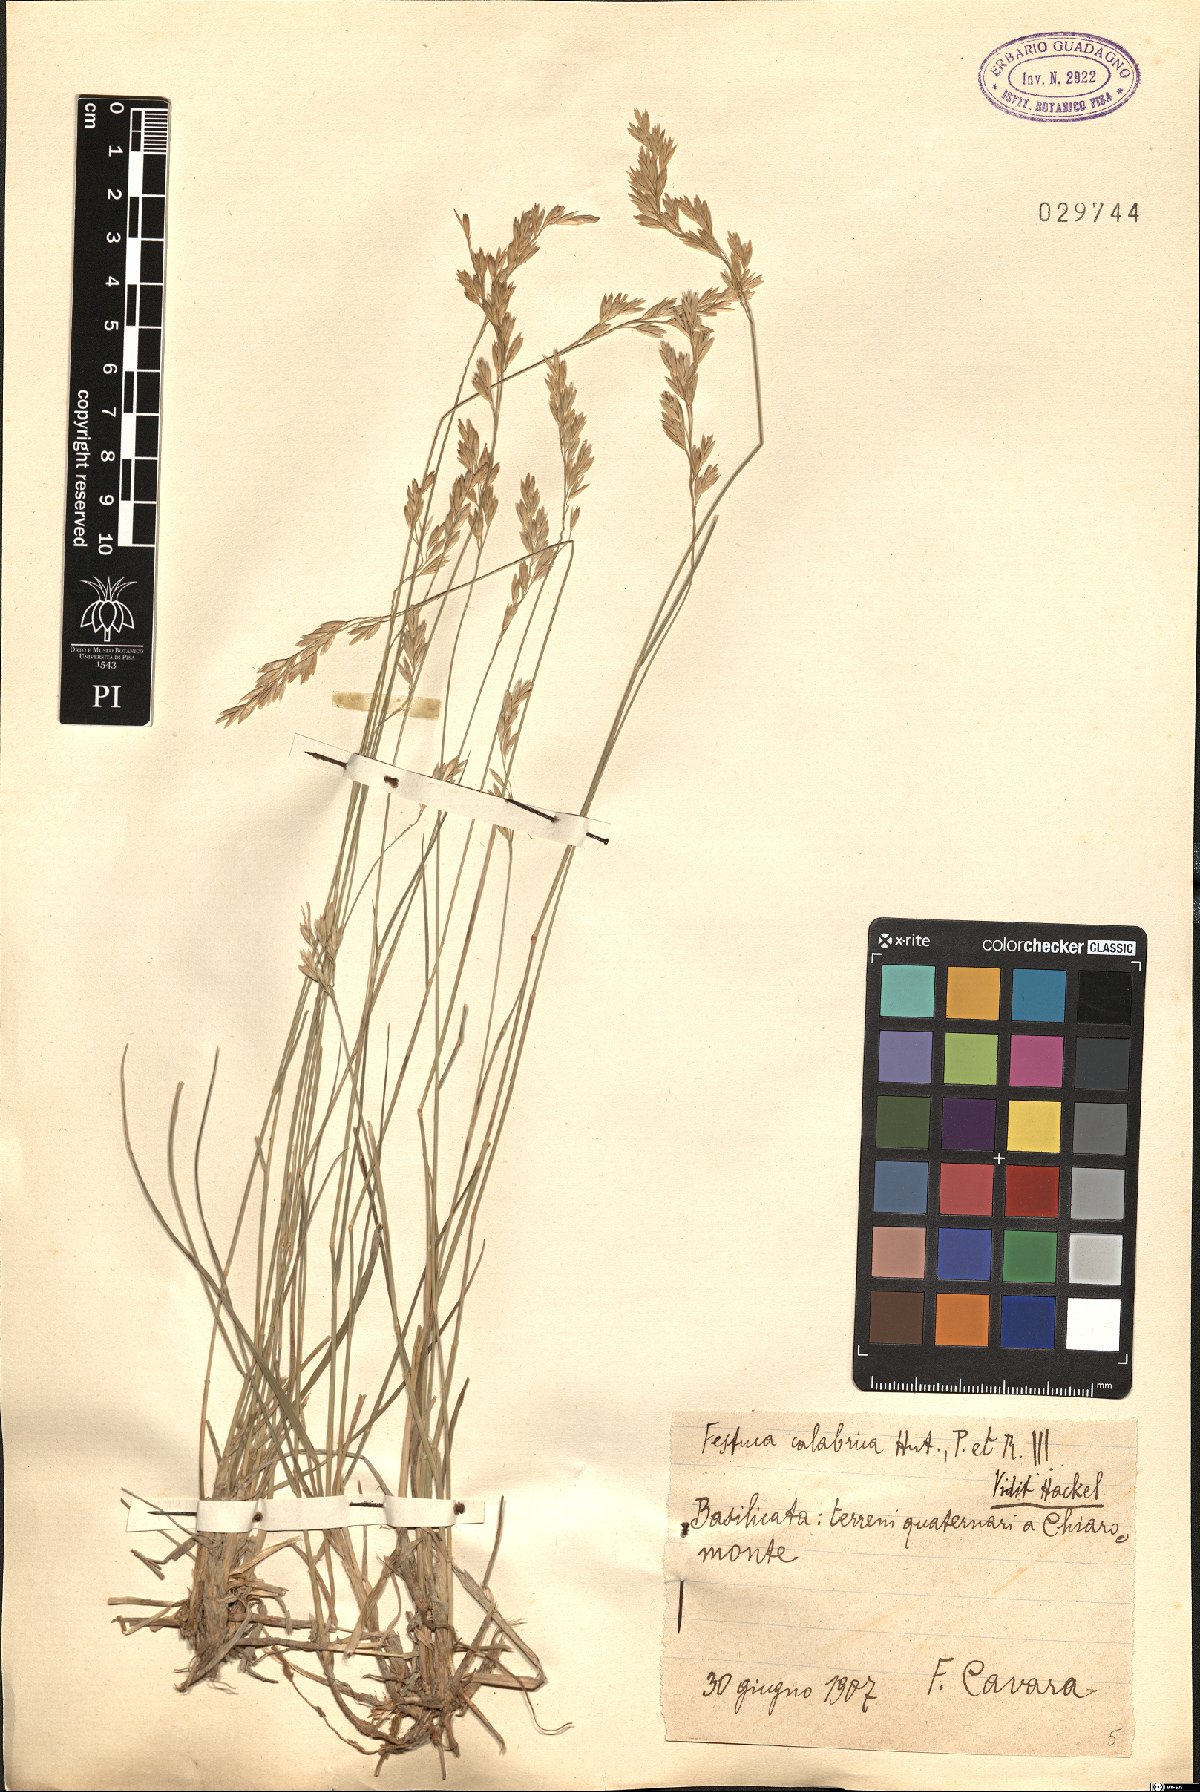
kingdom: Plantae
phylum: Tracheophyta
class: Liliopsida
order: Poales
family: Poaceae
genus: Festuca
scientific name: Festuca calabrica
